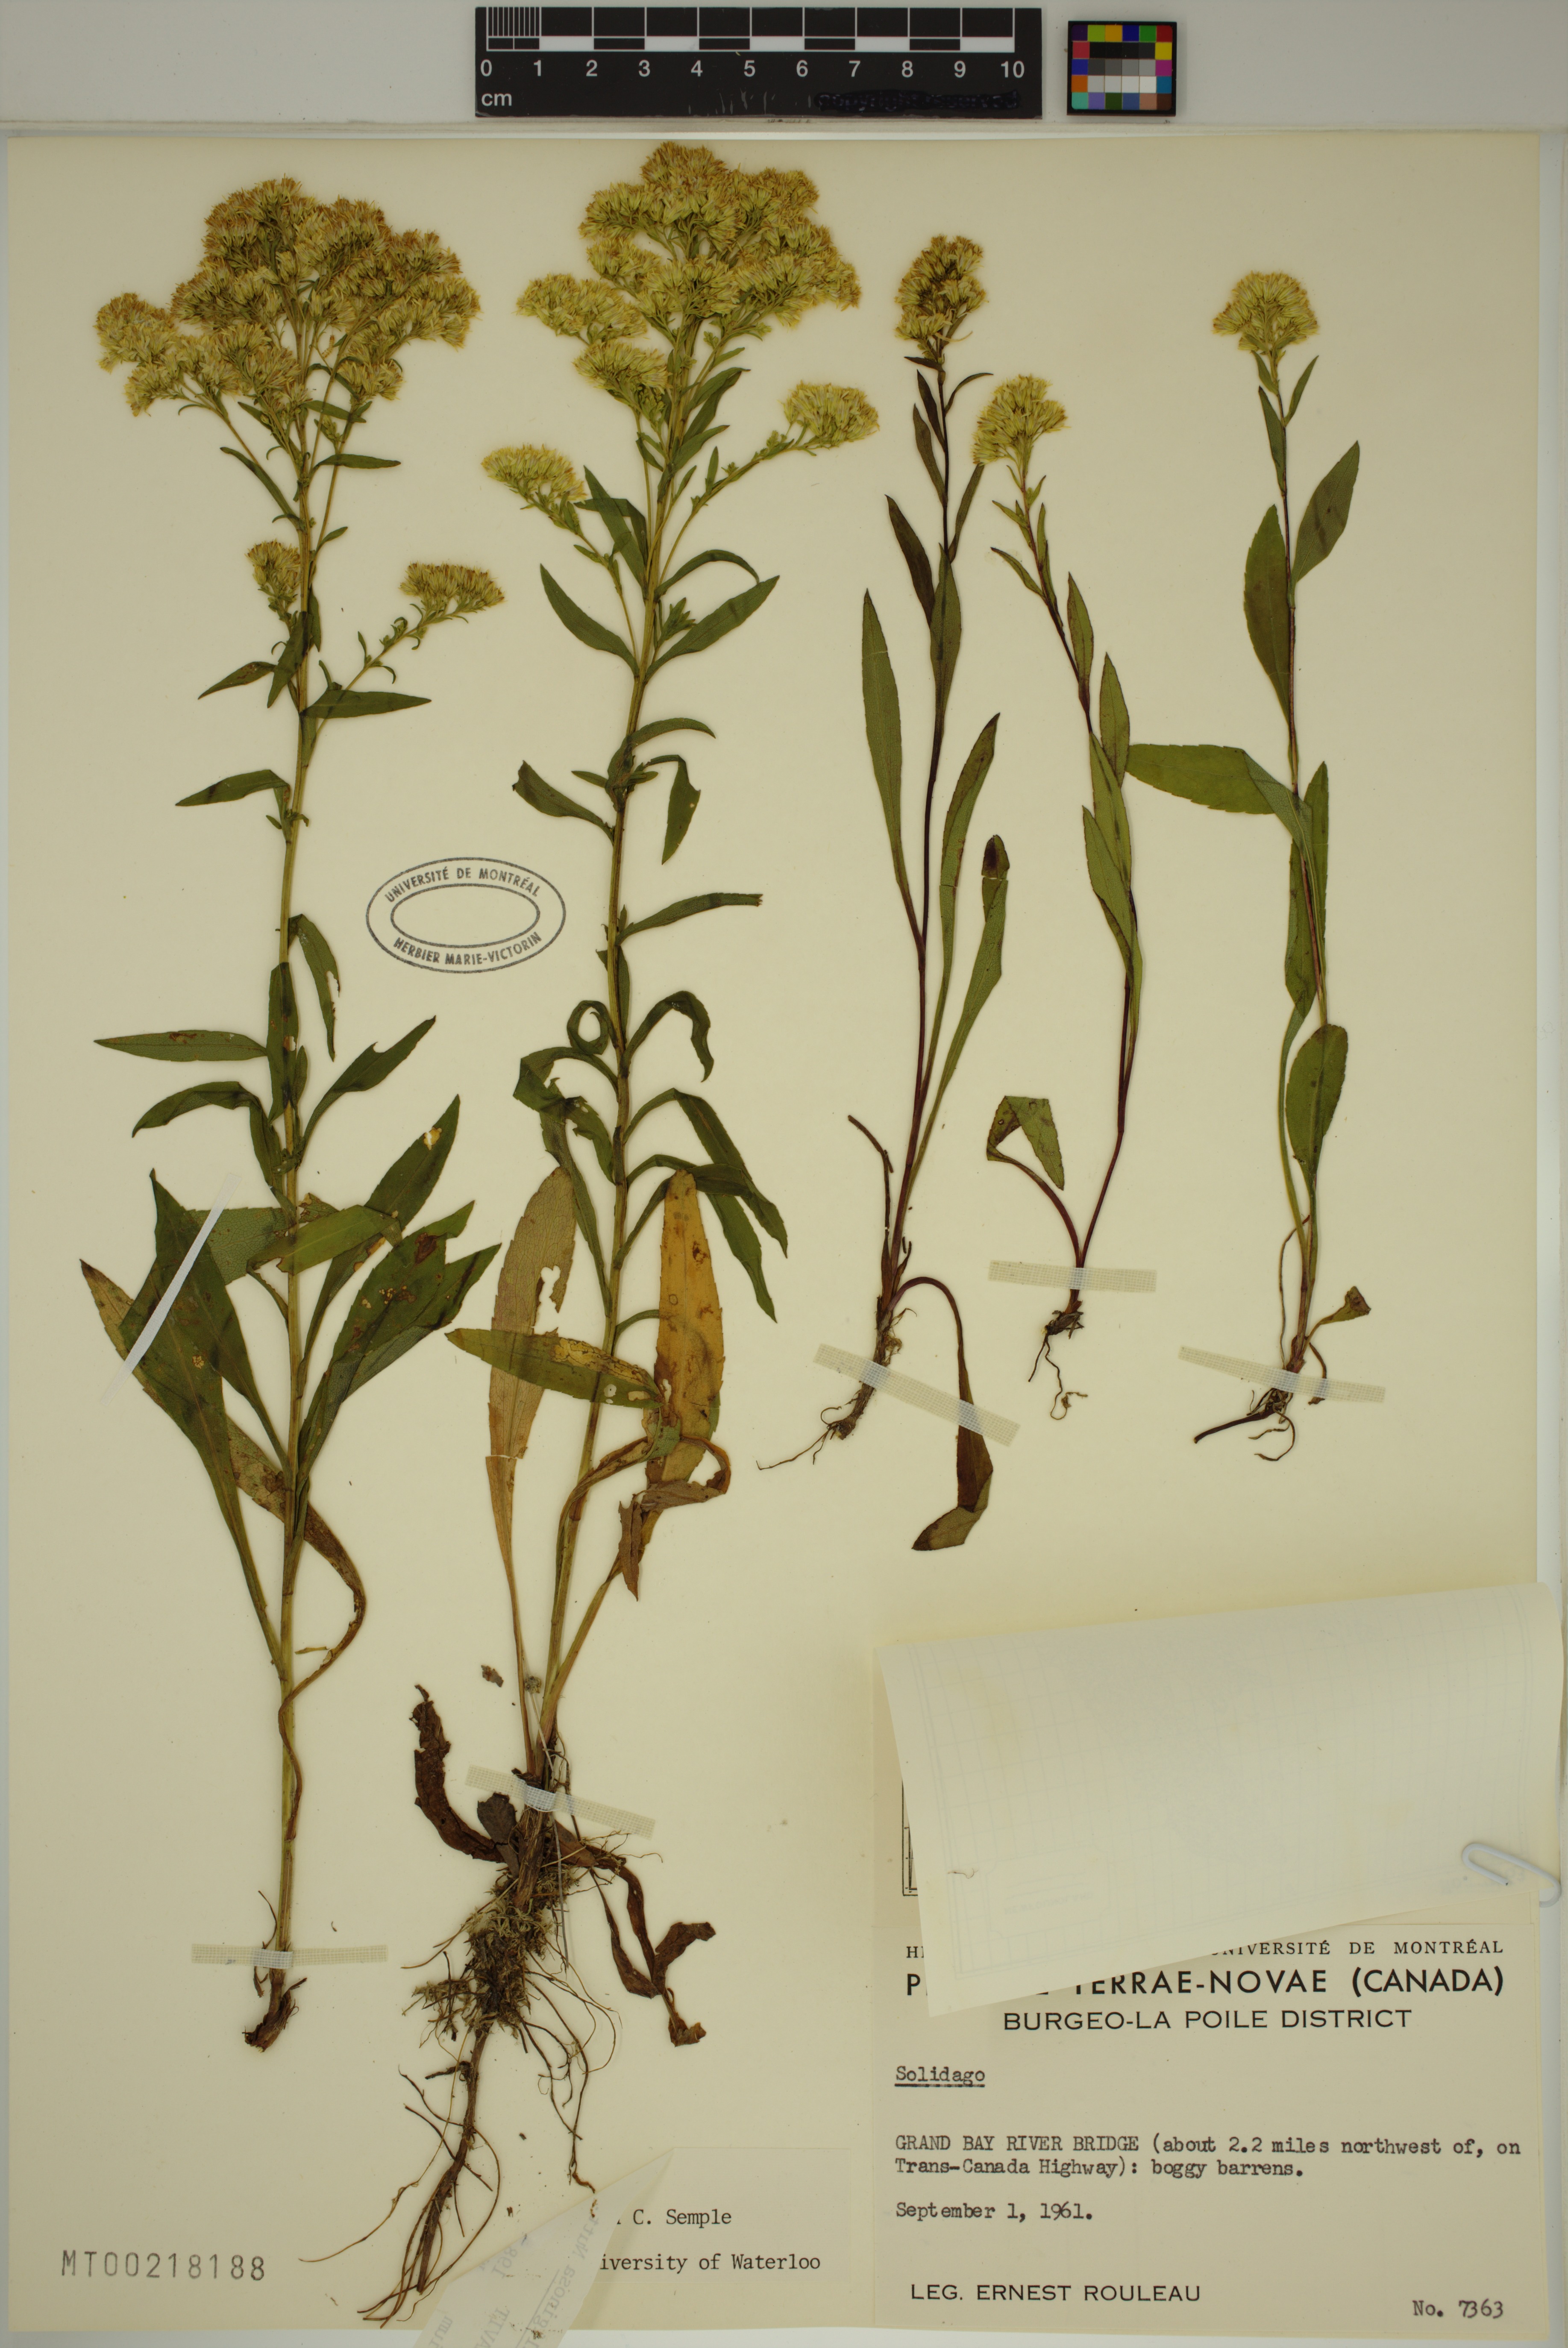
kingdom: Plantae
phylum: Tracheophyta
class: Magnoliopsida
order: Asterales
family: Asteraceae
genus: Solidago
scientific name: Solidago uliginosa
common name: Bog goldenrod
